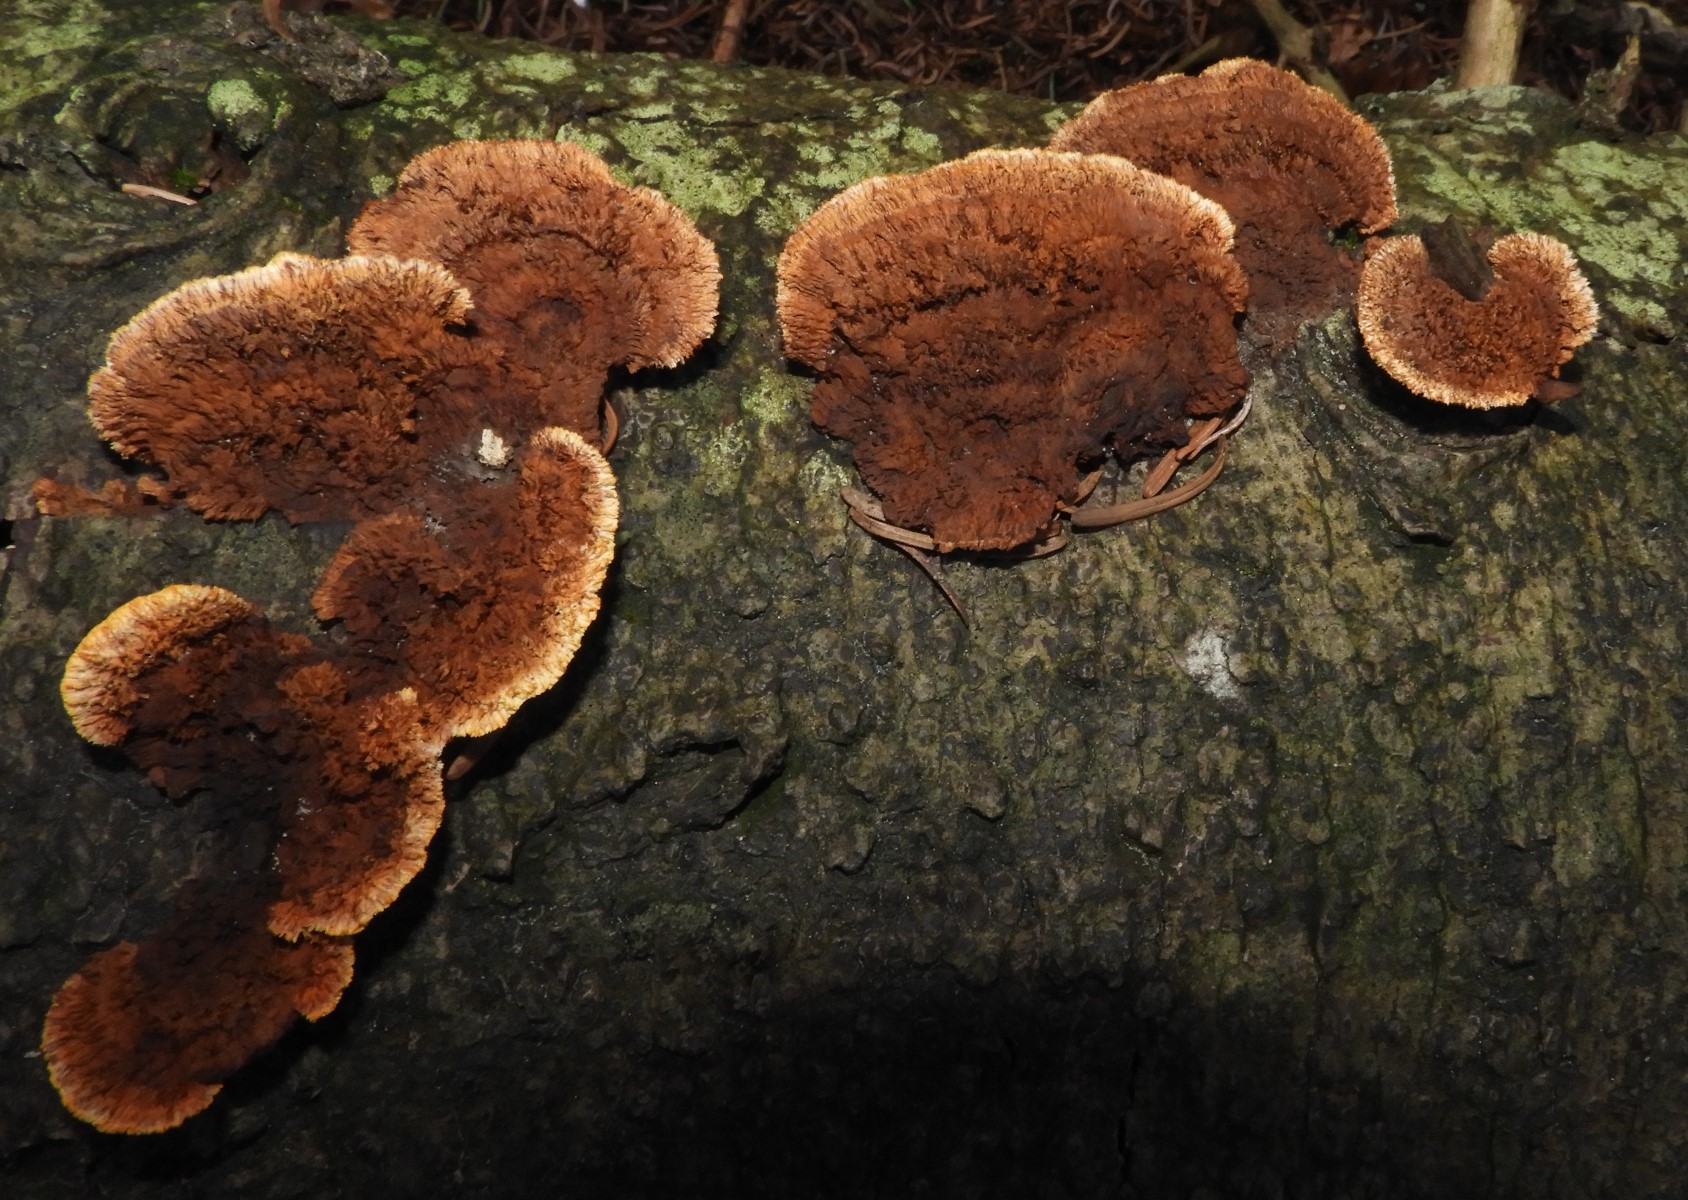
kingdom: Fungi
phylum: Basidiomycota
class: Agaricomycetes
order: Gloeophyllales
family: Gloeophyllaceae
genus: Gloeophyllum
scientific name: Gloeophyllum sepiarium
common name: fyrre-korkhat
